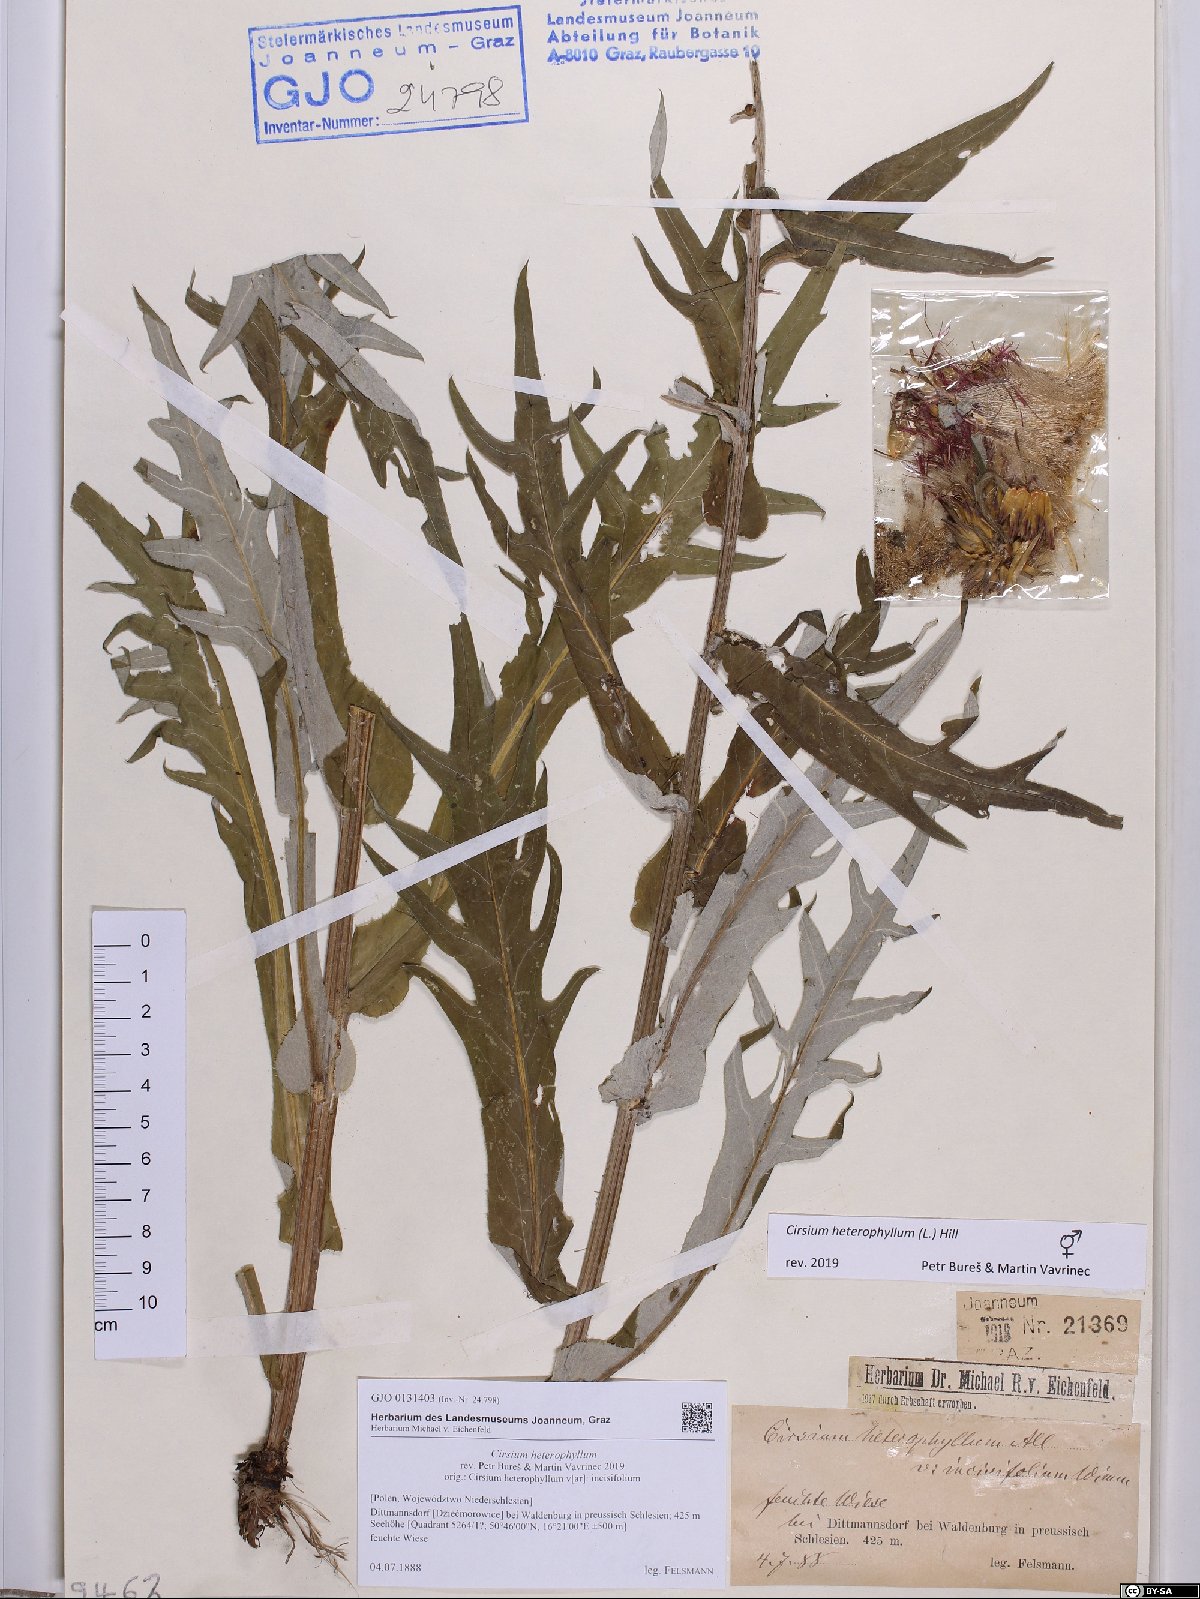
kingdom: Plantae
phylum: Tracheophyta
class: Magnoliopsida
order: Asterales
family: Asteraceae
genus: Cirsium
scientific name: Cirsium heterophyllum
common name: Melancholy thistle
